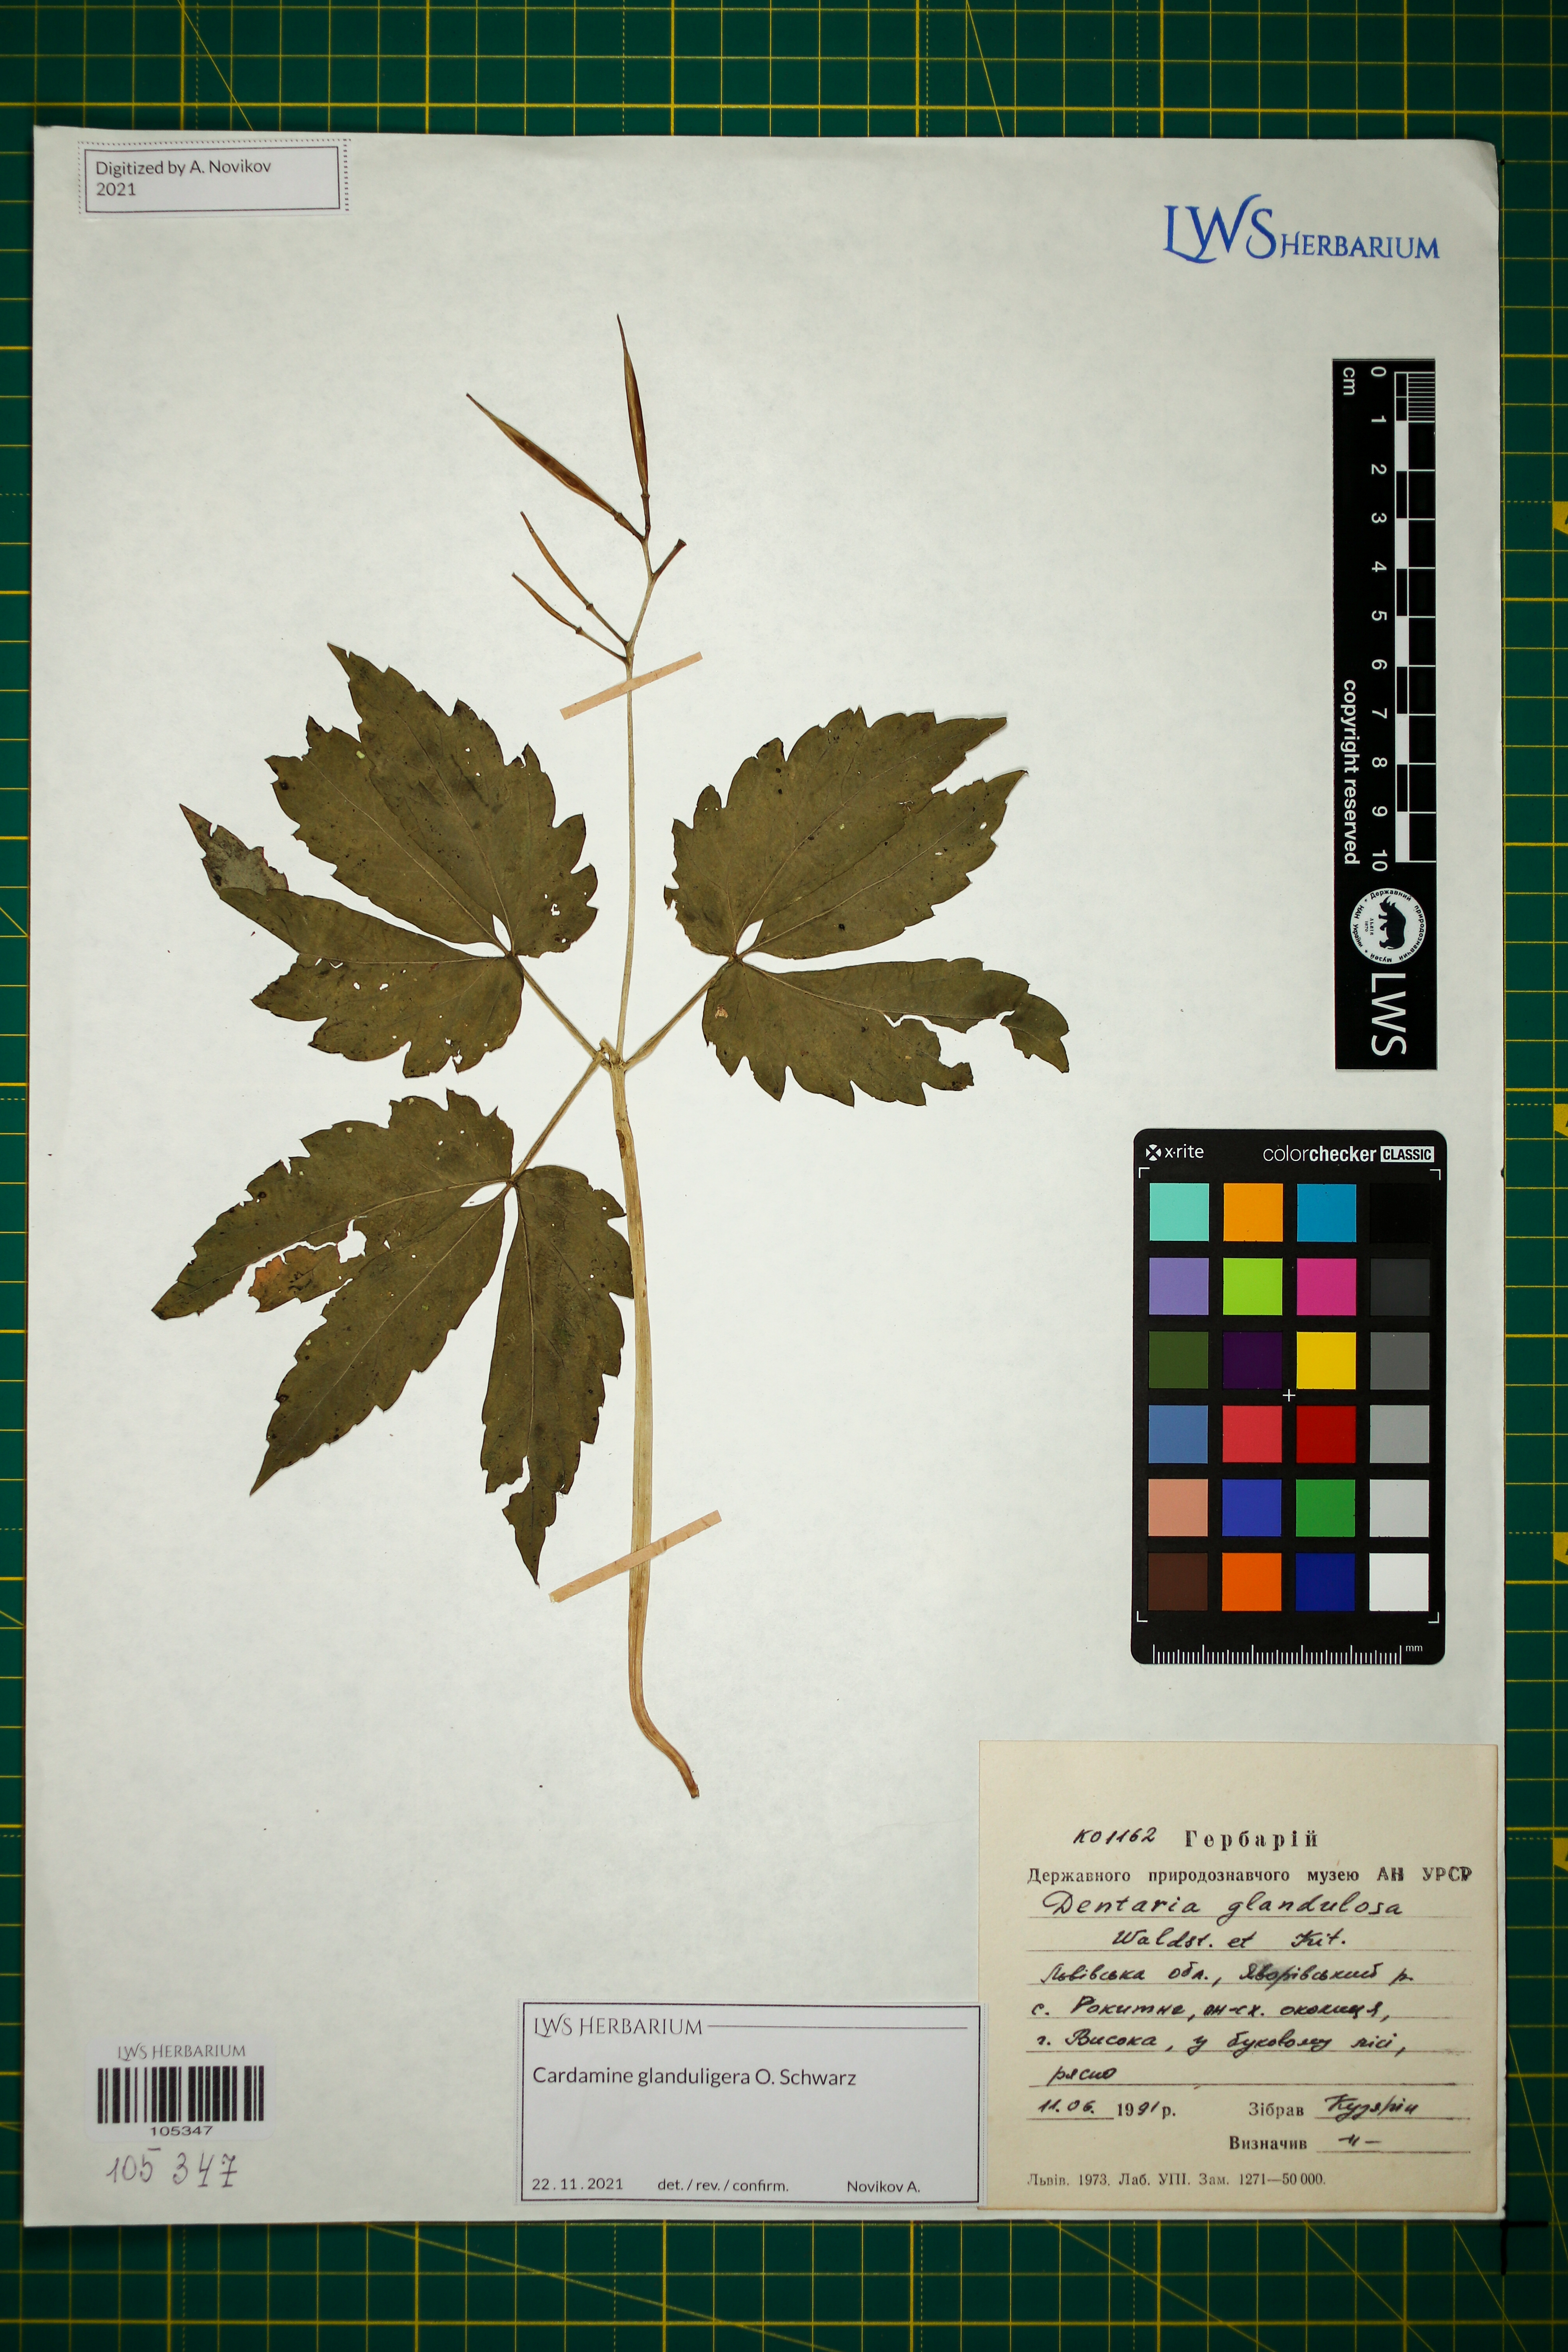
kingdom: Plantae
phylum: Tracheophyta
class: Magnoliopsida
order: Brassicales
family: Brassicaceae
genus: Cardamine
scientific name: Cardamine glanduligera
